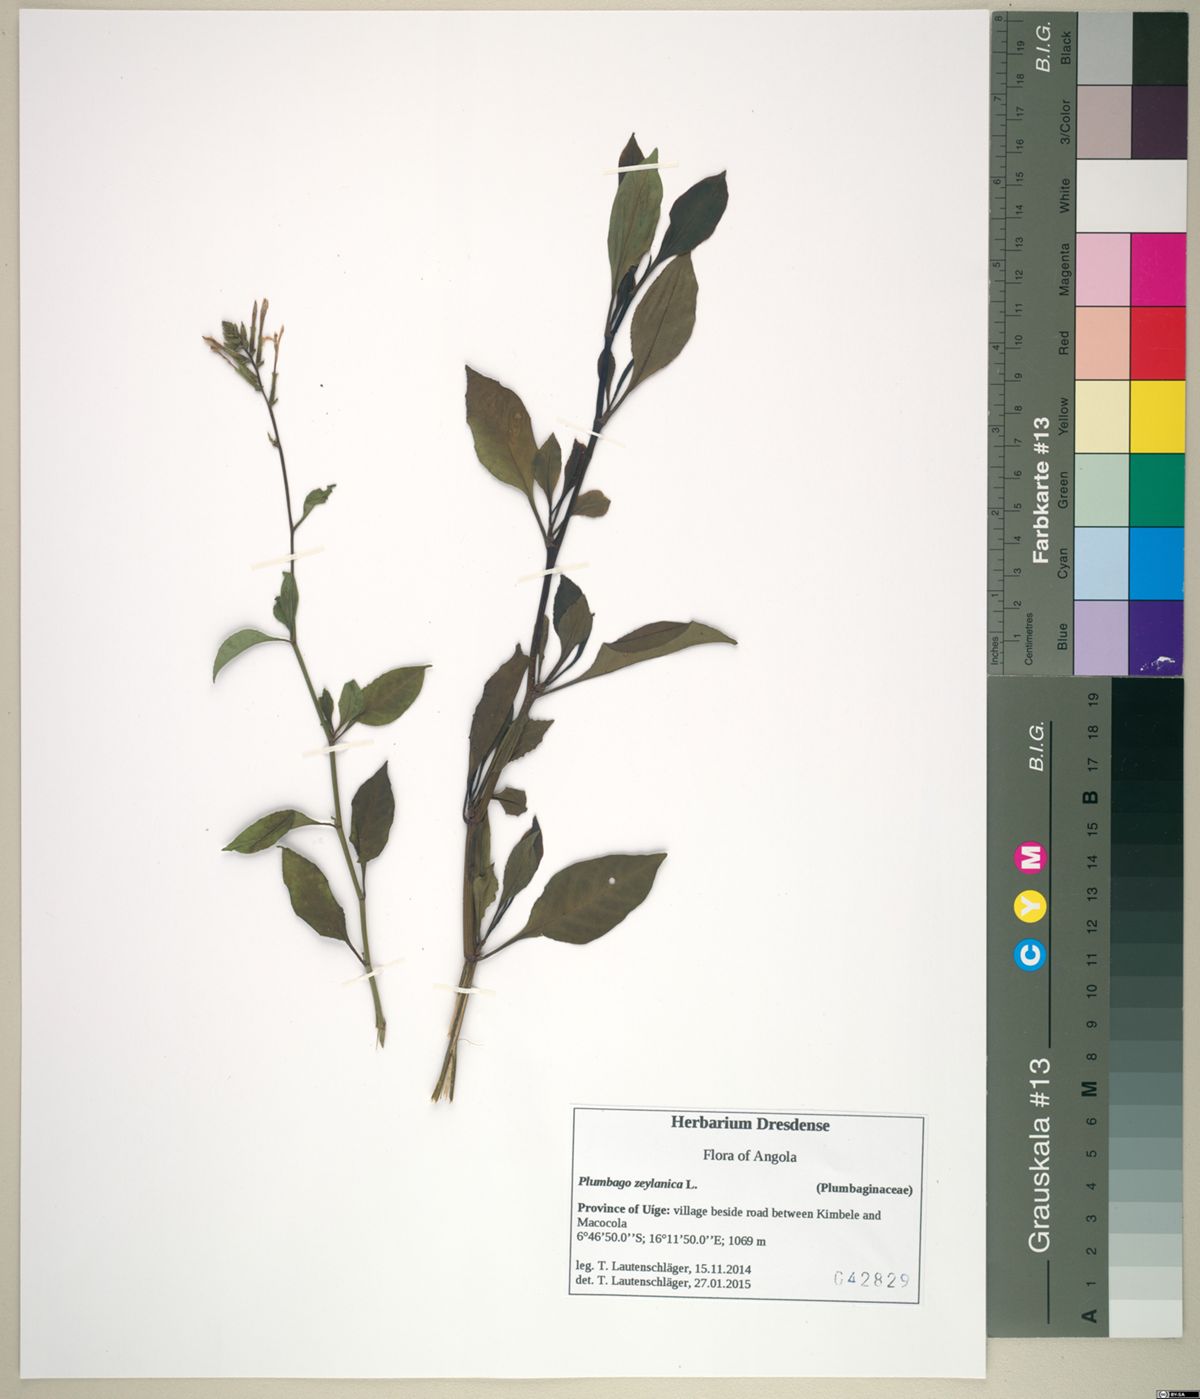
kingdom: Plantae
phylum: Tracheophyta
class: Magnoliopsida
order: Caryophyllales
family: Plumbaginaceae
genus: Plumbago
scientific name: Plumbago zeylanica
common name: Doctorbush
